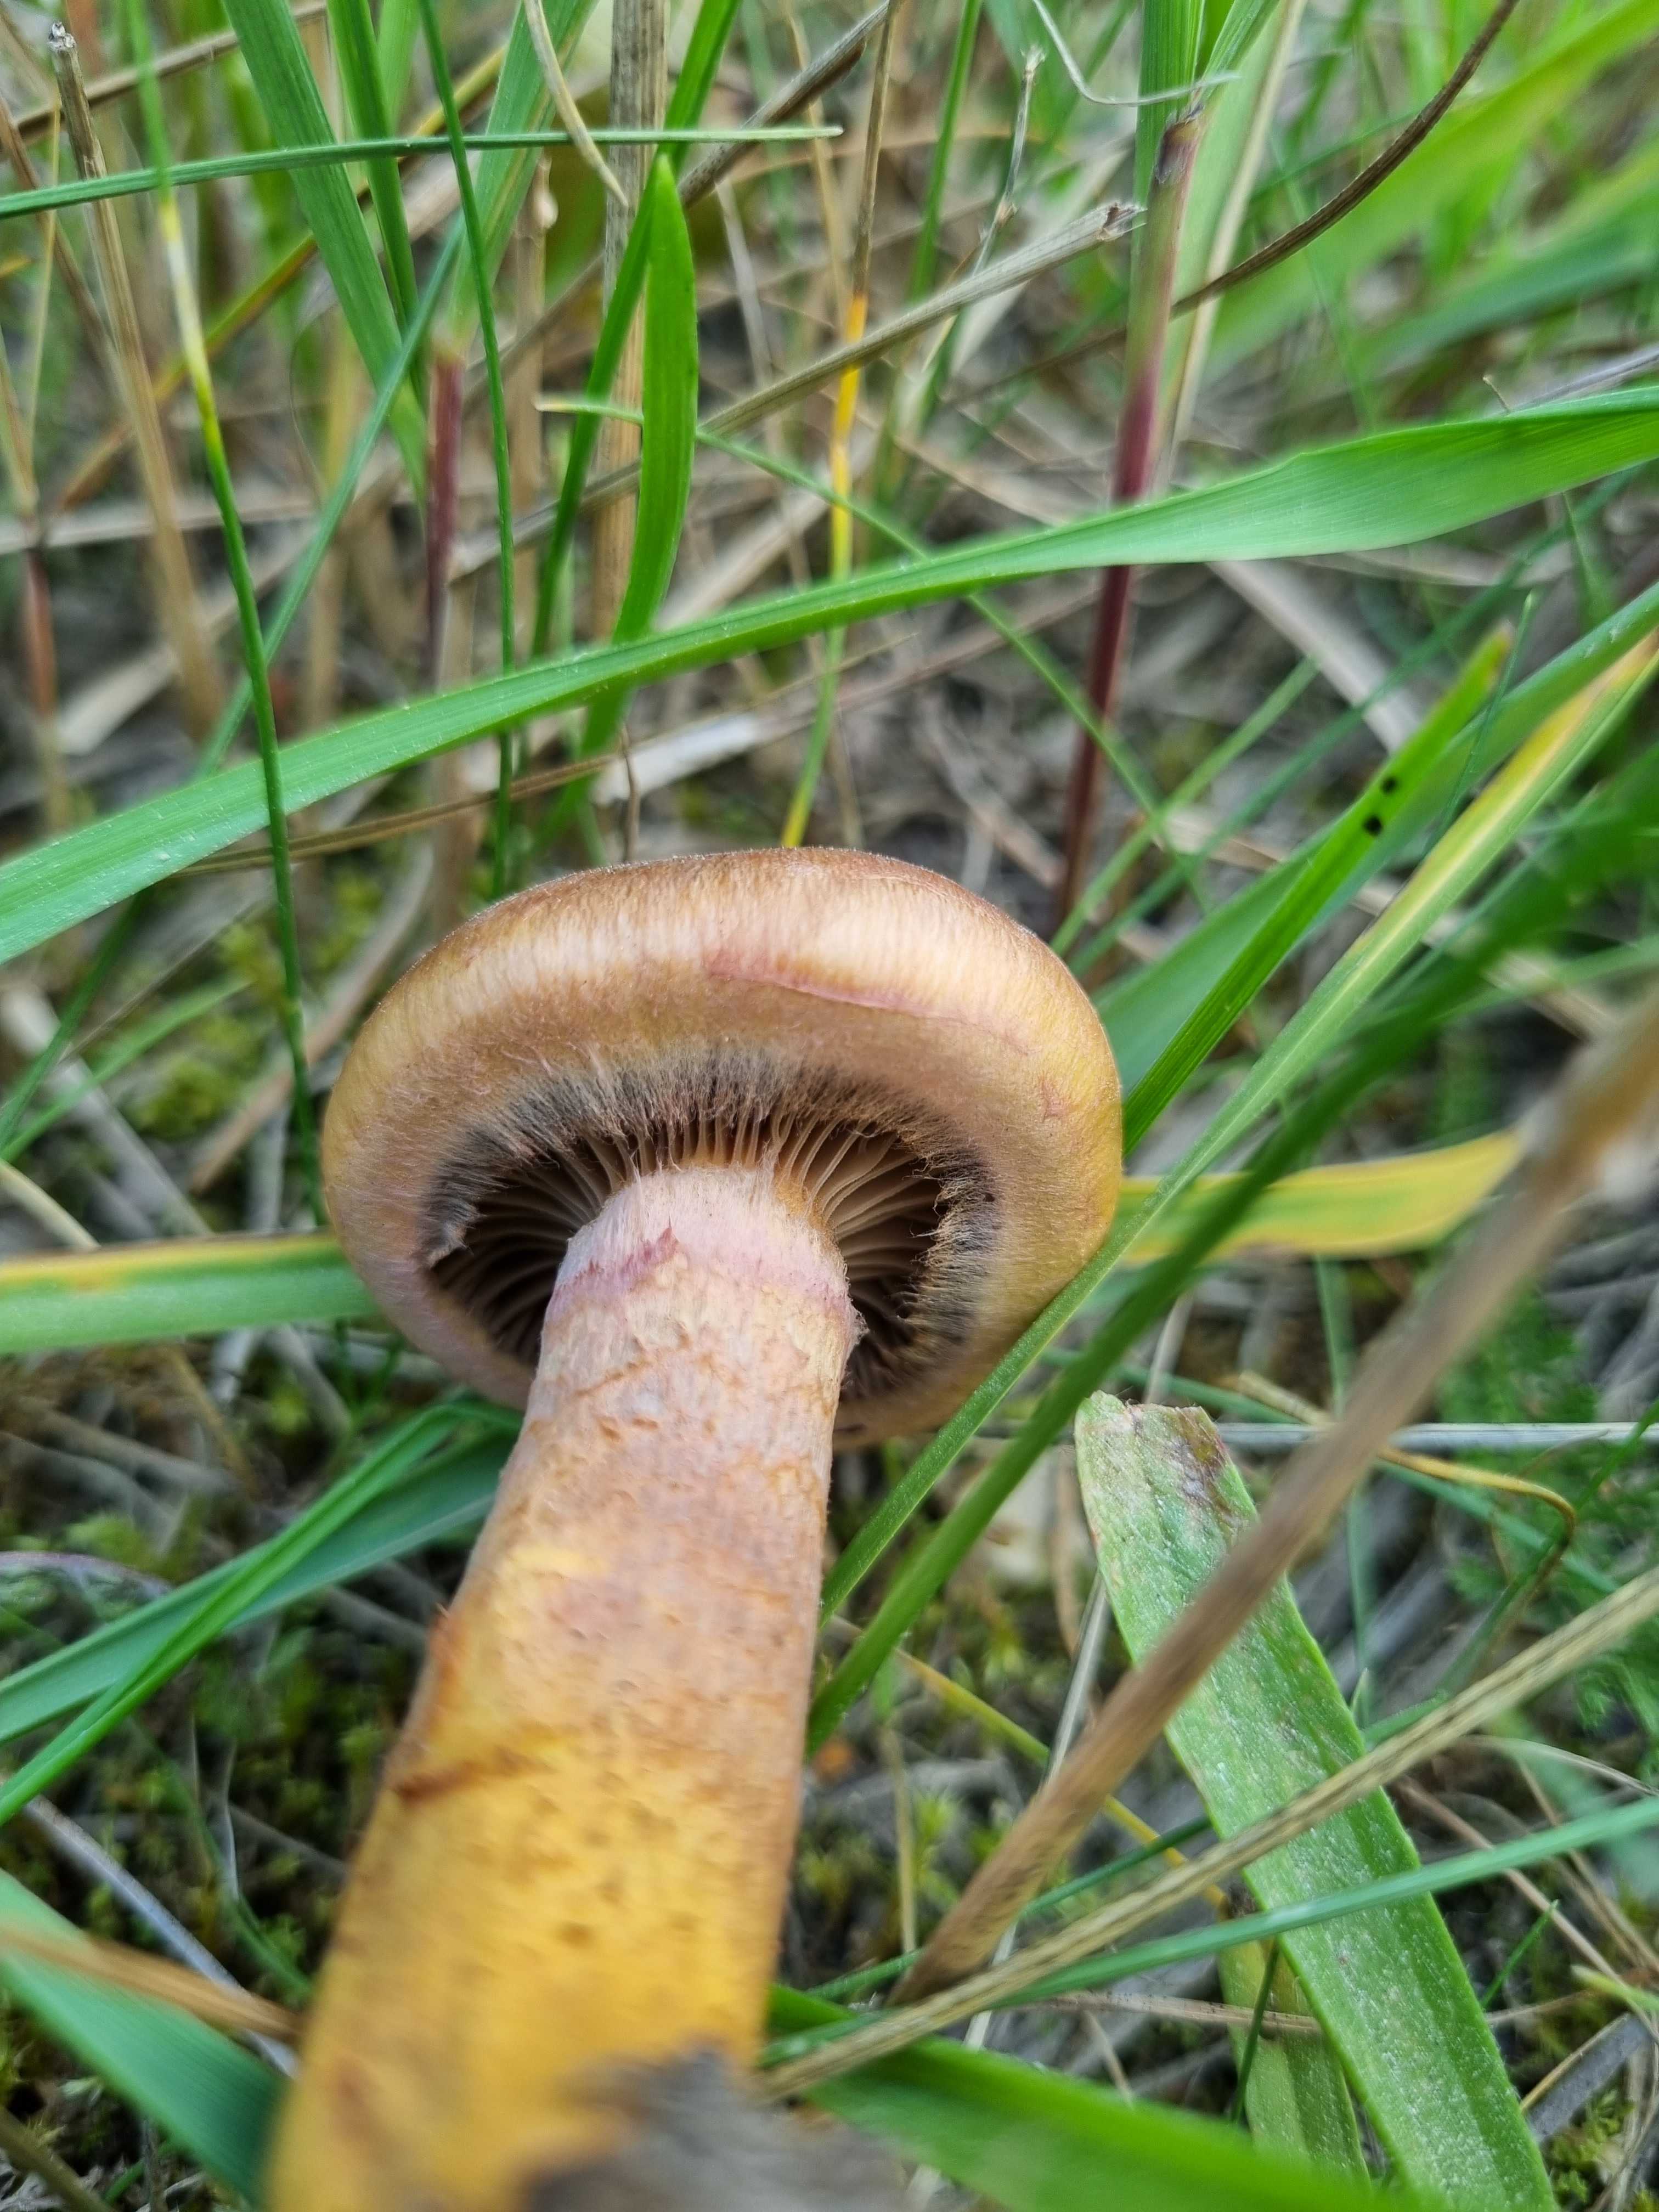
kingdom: Fungi
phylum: Basidiomycota
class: Agaricomycetes
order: Boletales
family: Gomphidiaceae
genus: Chroogomphus
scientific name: Chroogomphus rutilus
